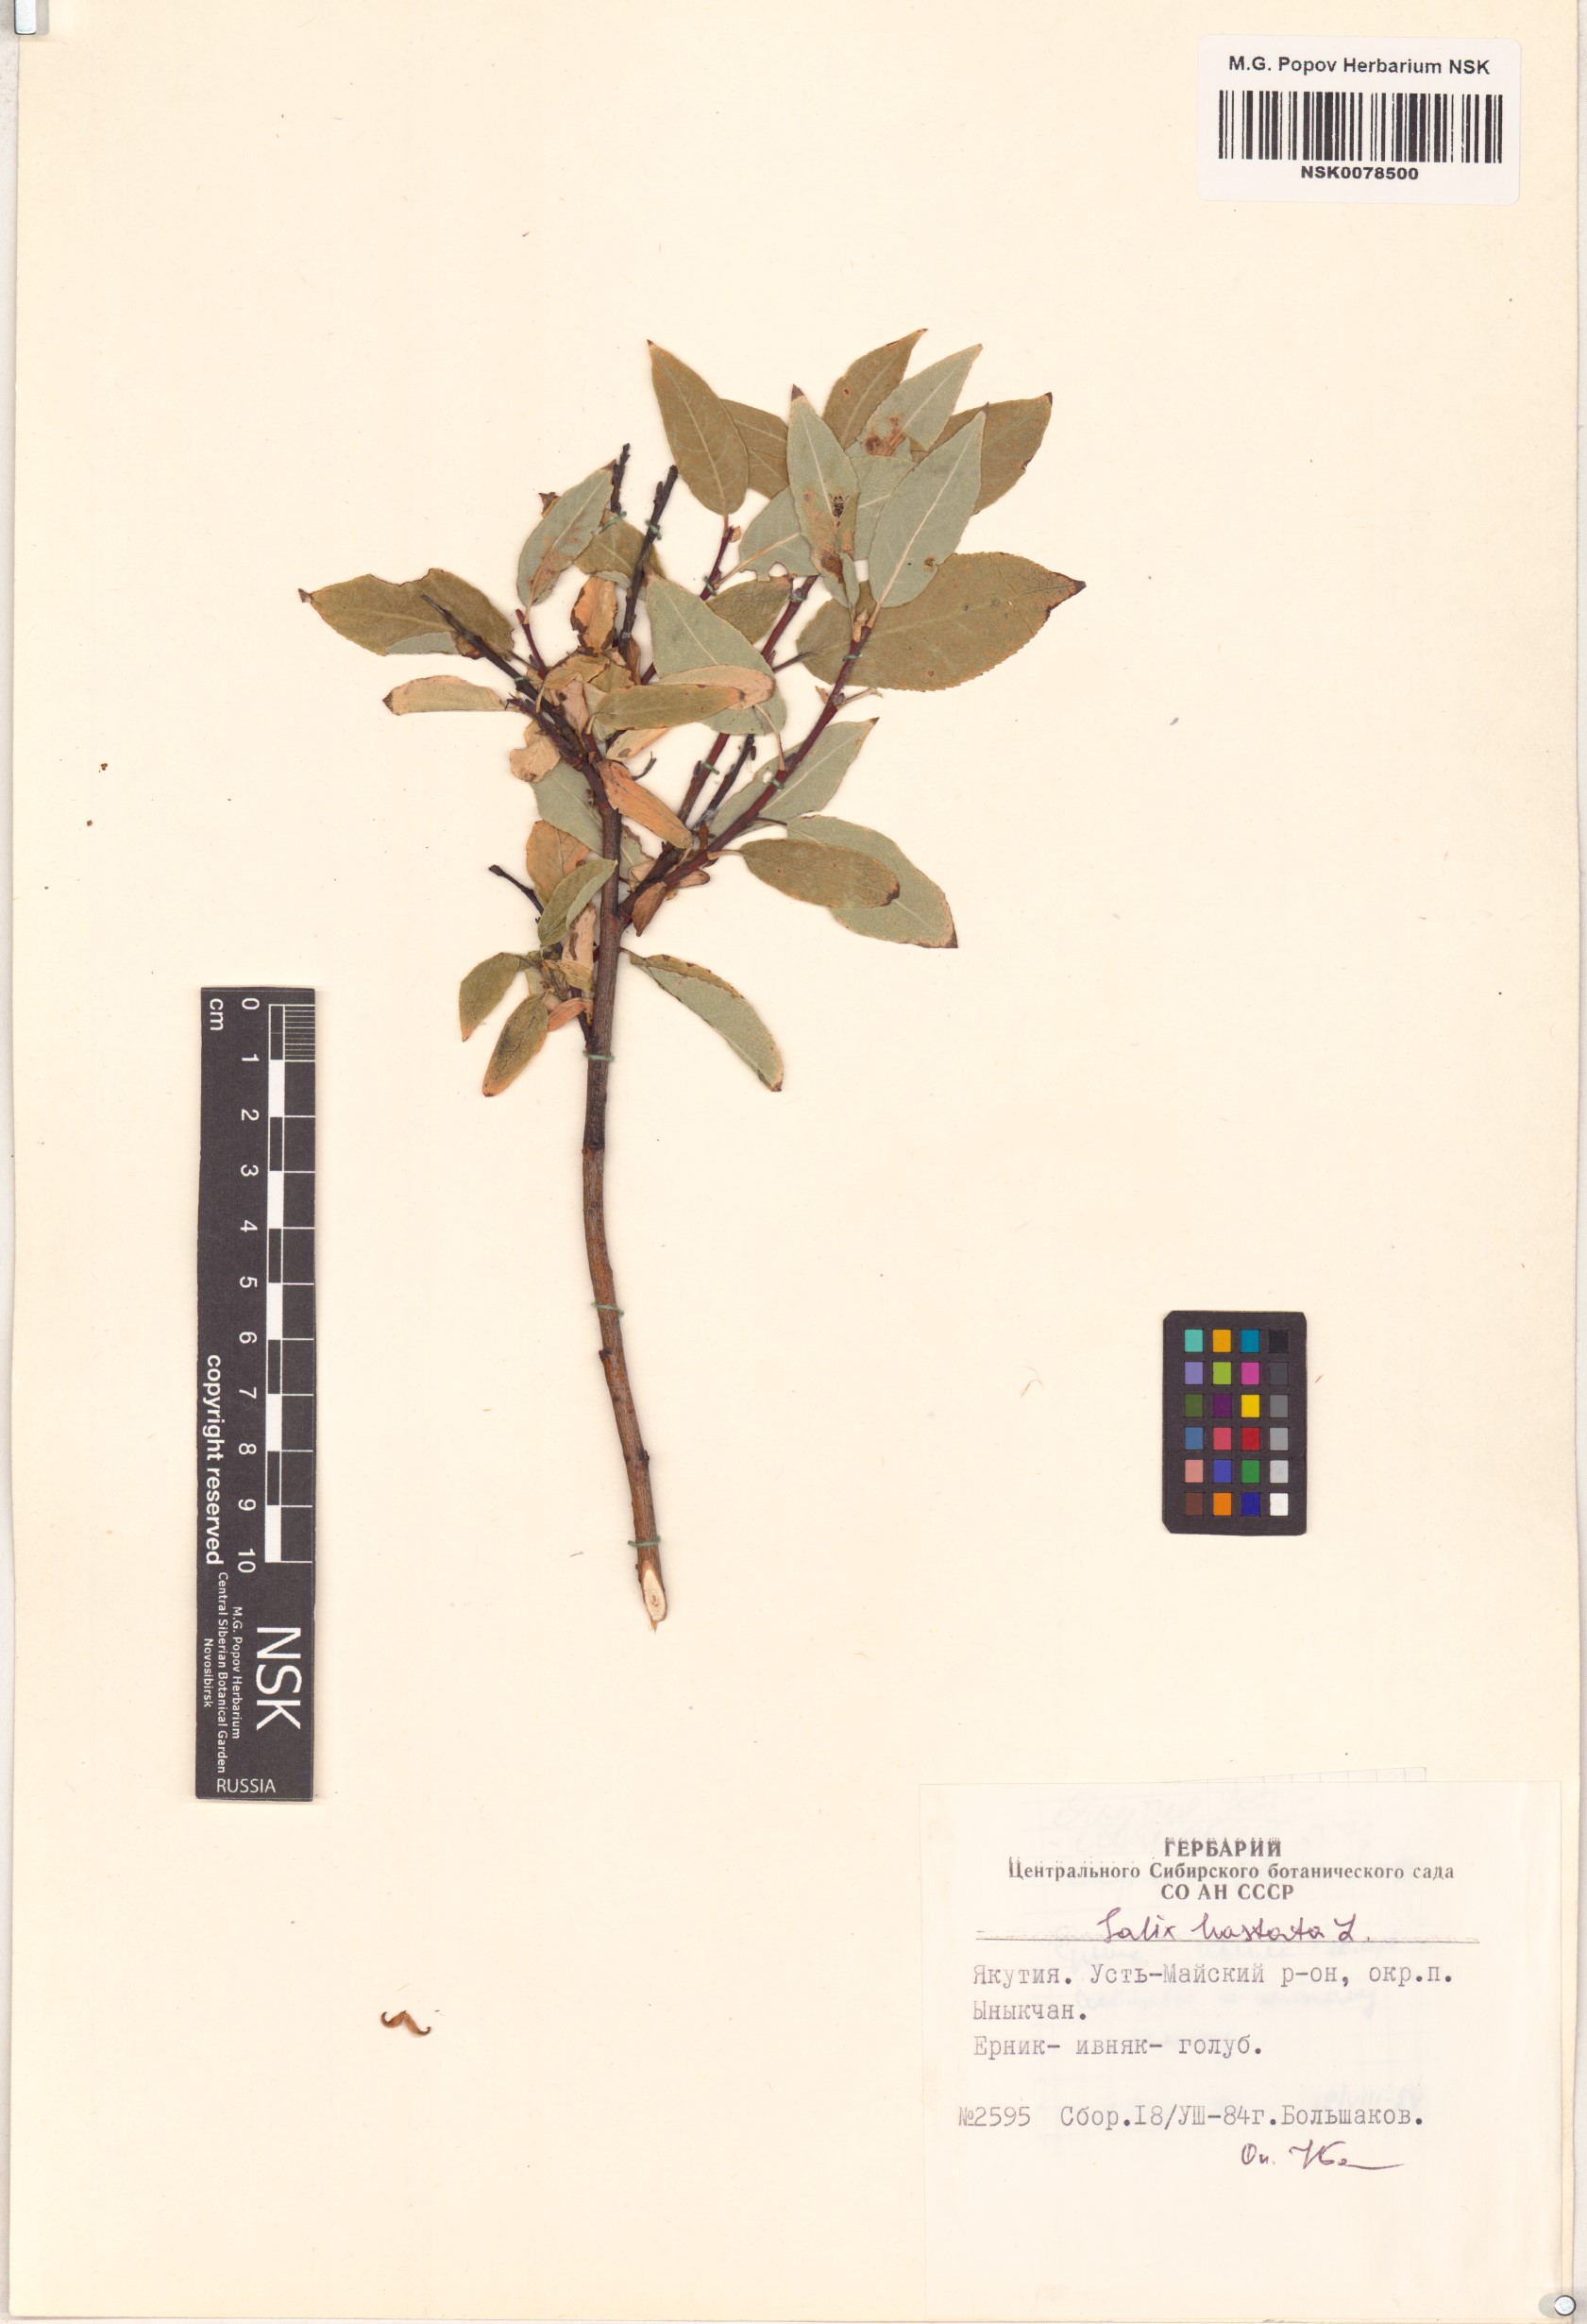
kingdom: Plantae
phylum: Tracheophyta
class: Magnoliopsida
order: Malpighiales
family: Salicaceae
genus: Salix
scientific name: Salix hastata
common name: Halberd willow
